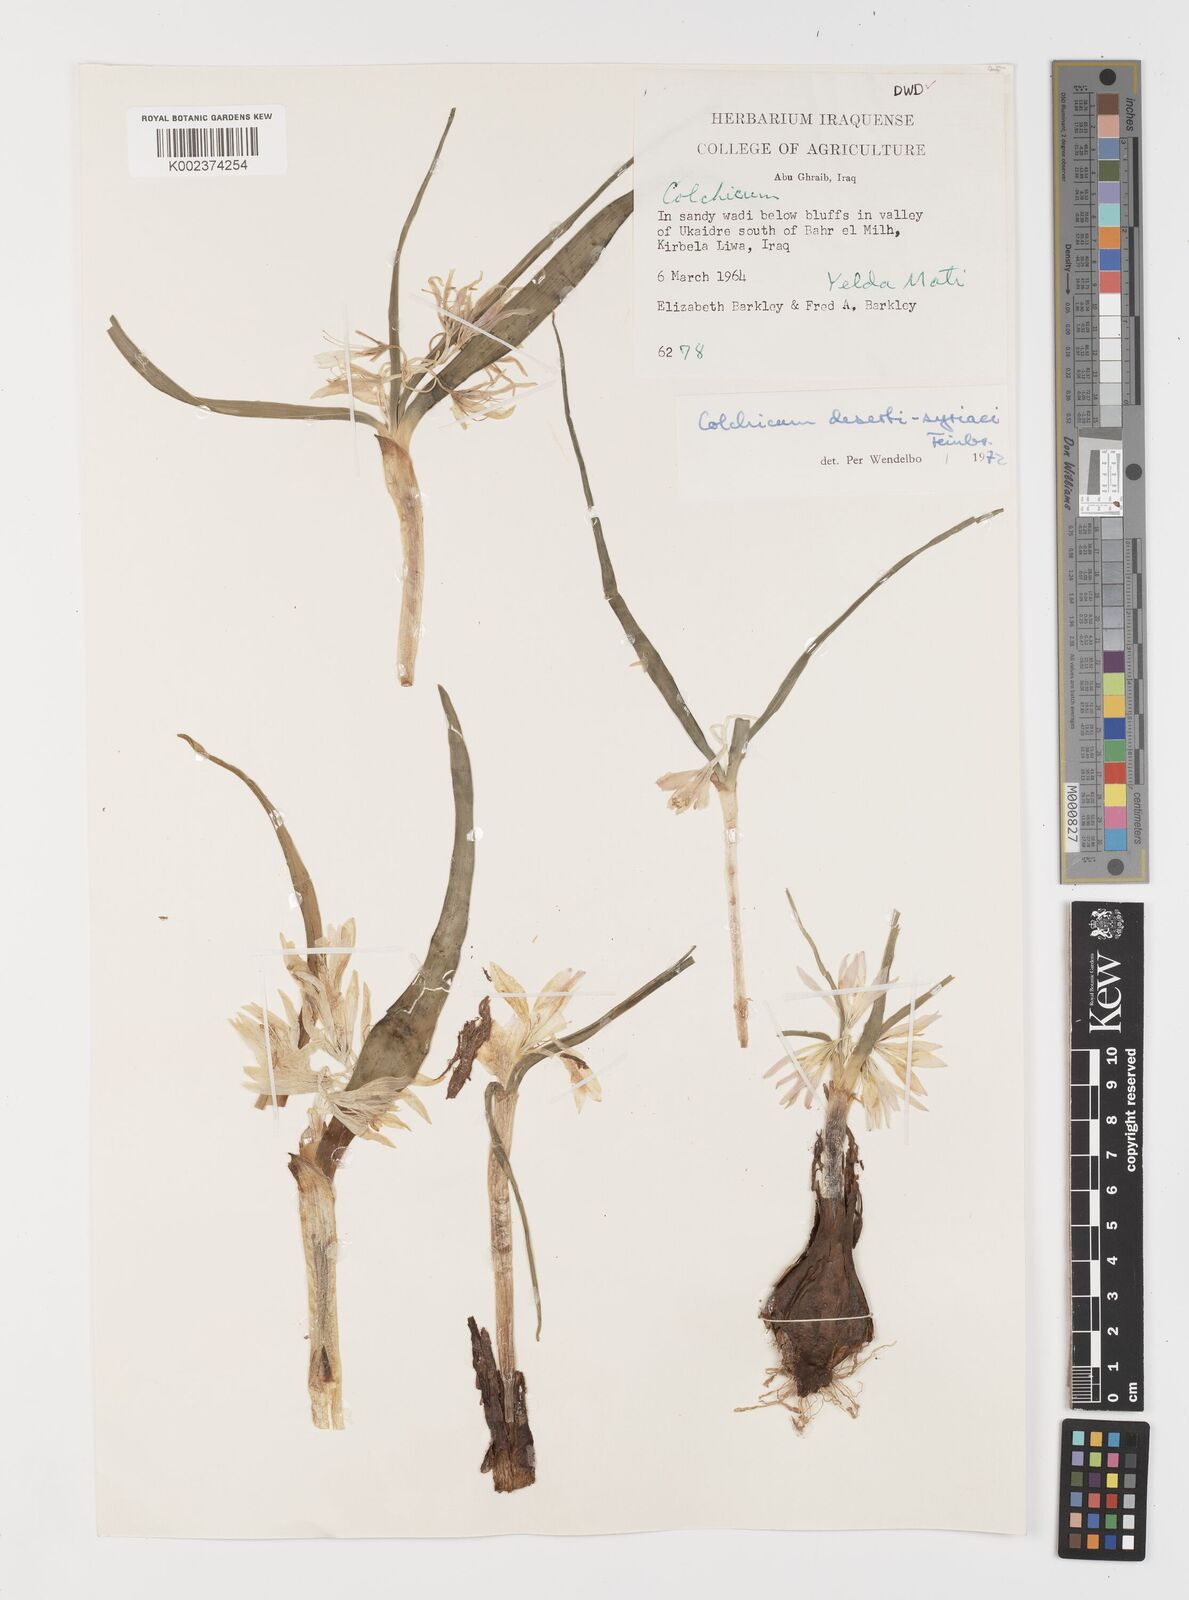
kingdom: Plantae
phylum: Tracheophyta
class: Liliopsida
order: Liliales
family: Colchicaceae
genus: Colchicum
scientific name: Colchicum schimperi
